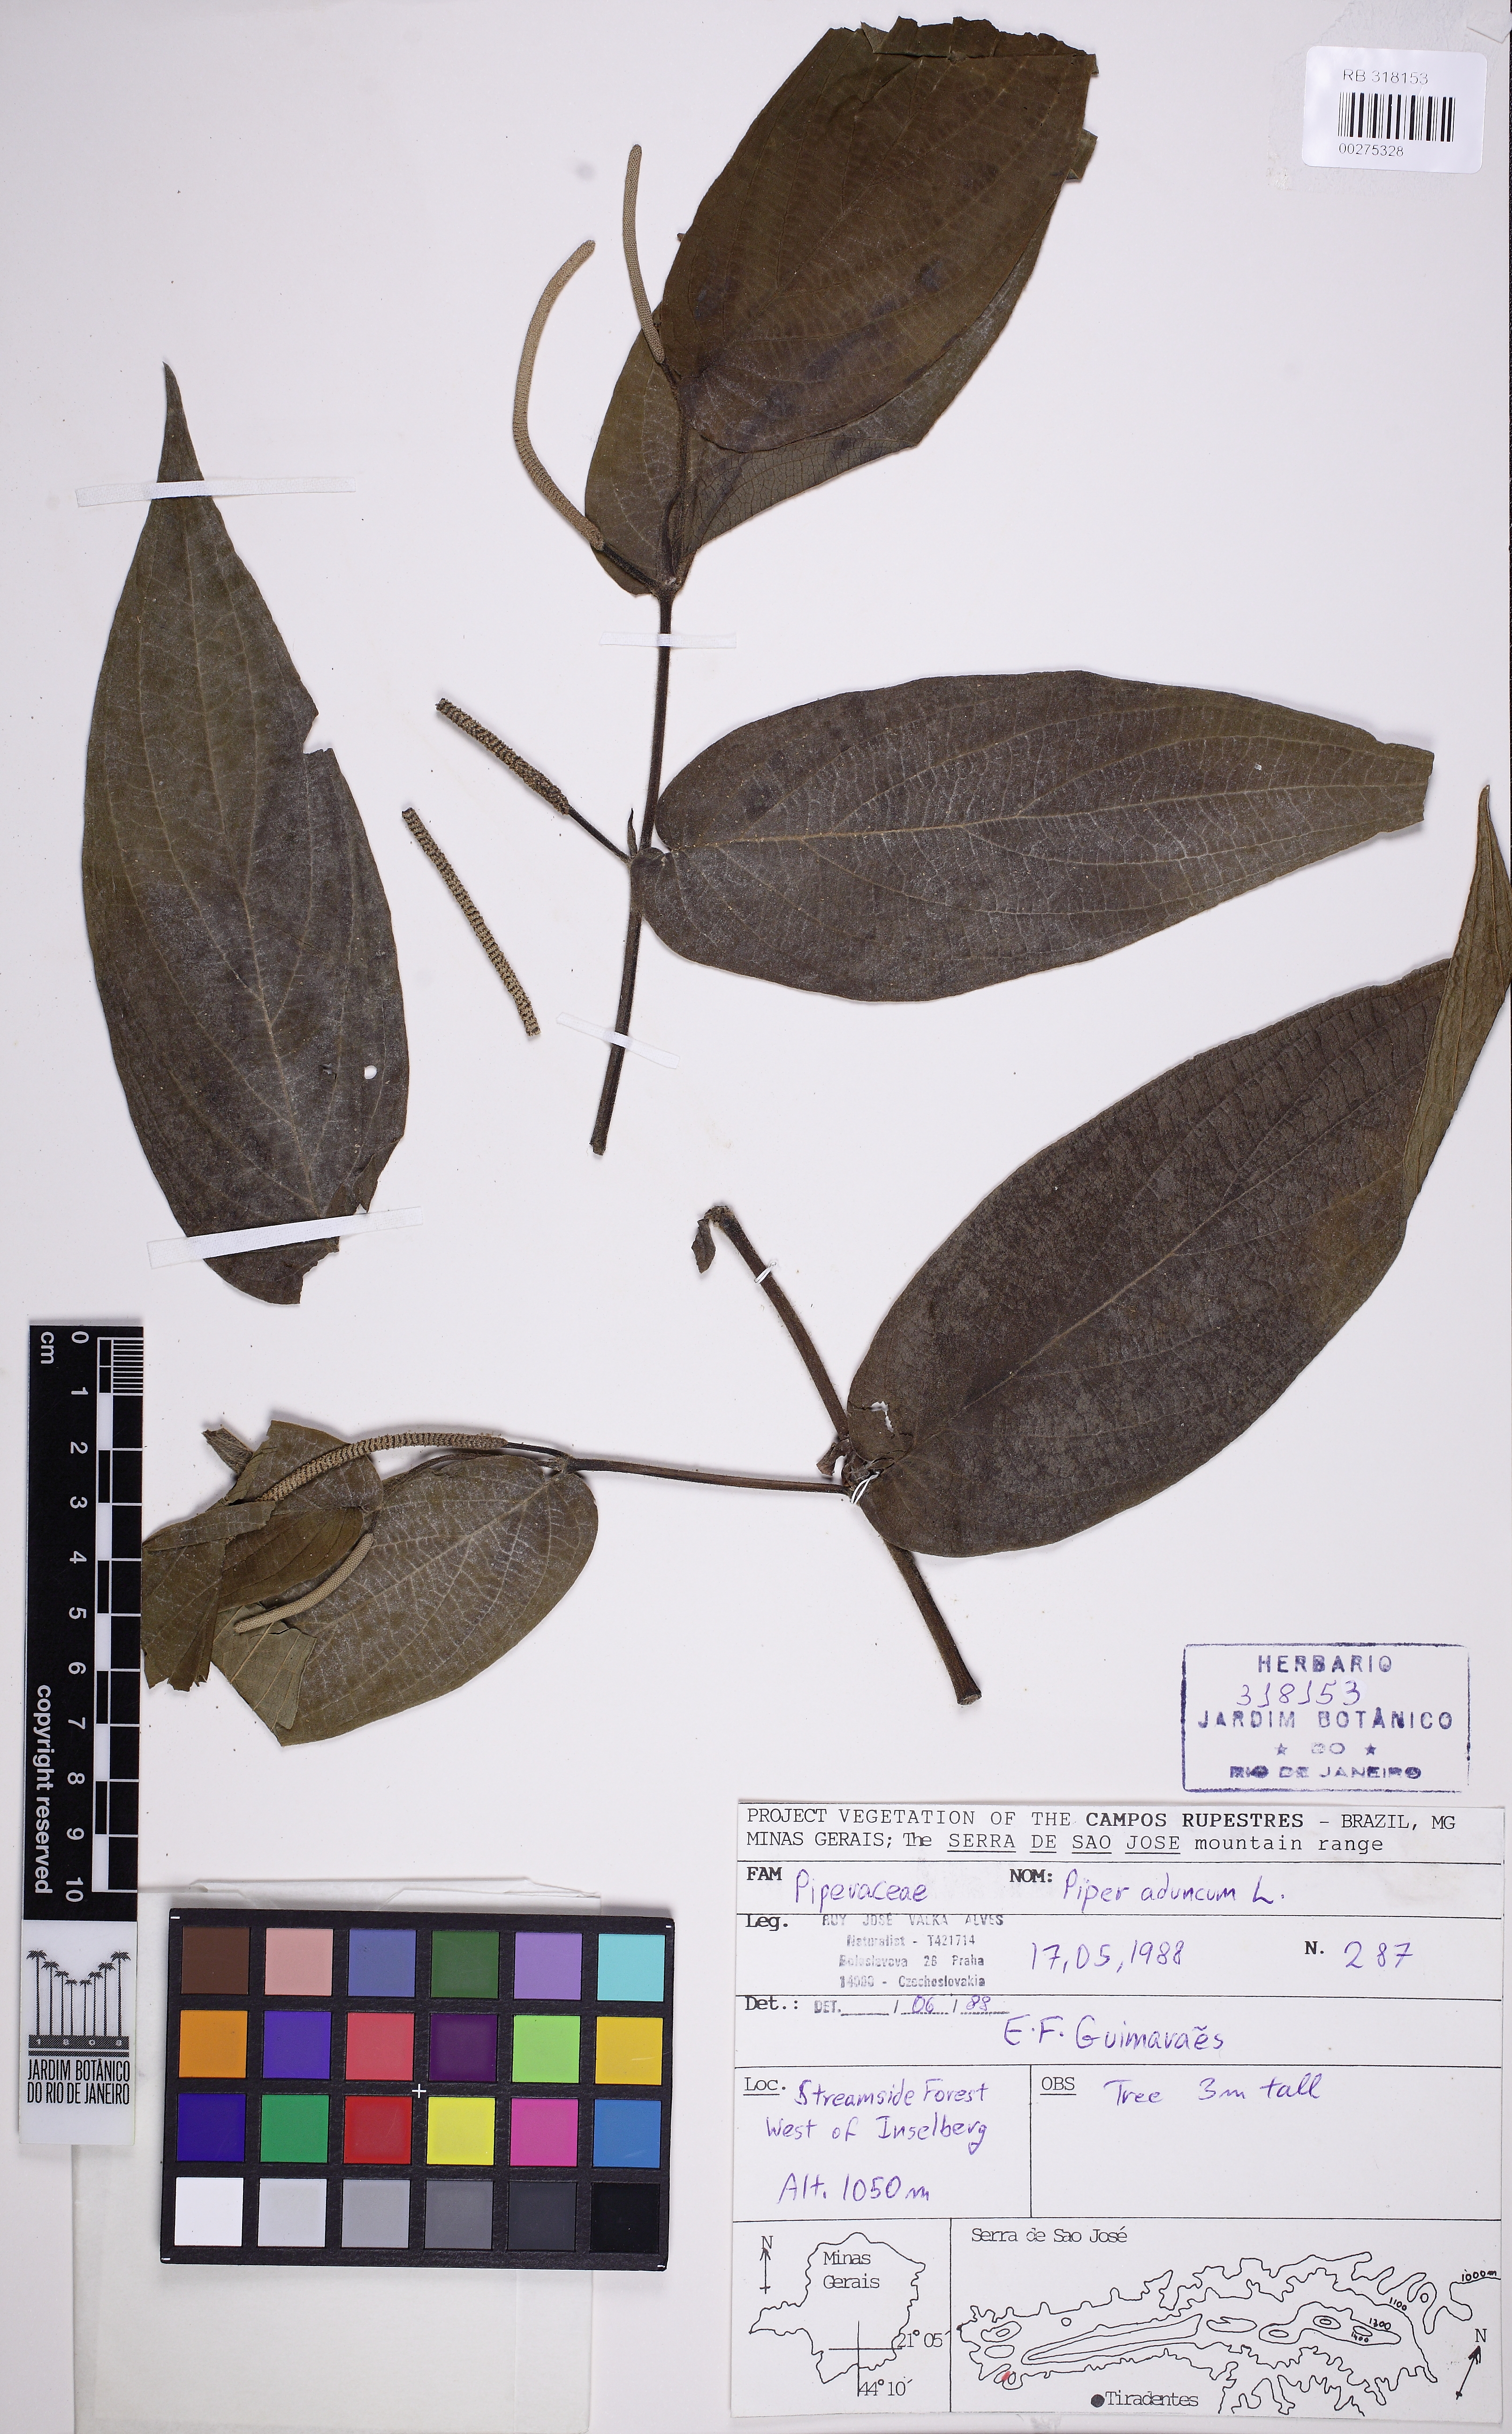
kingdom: Plantae
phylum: Tracheophyta
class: Magnoliopsida
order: Piperales
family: Piperaceae
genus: Piper
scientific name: Piper aduncum
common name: Spiked pepper
